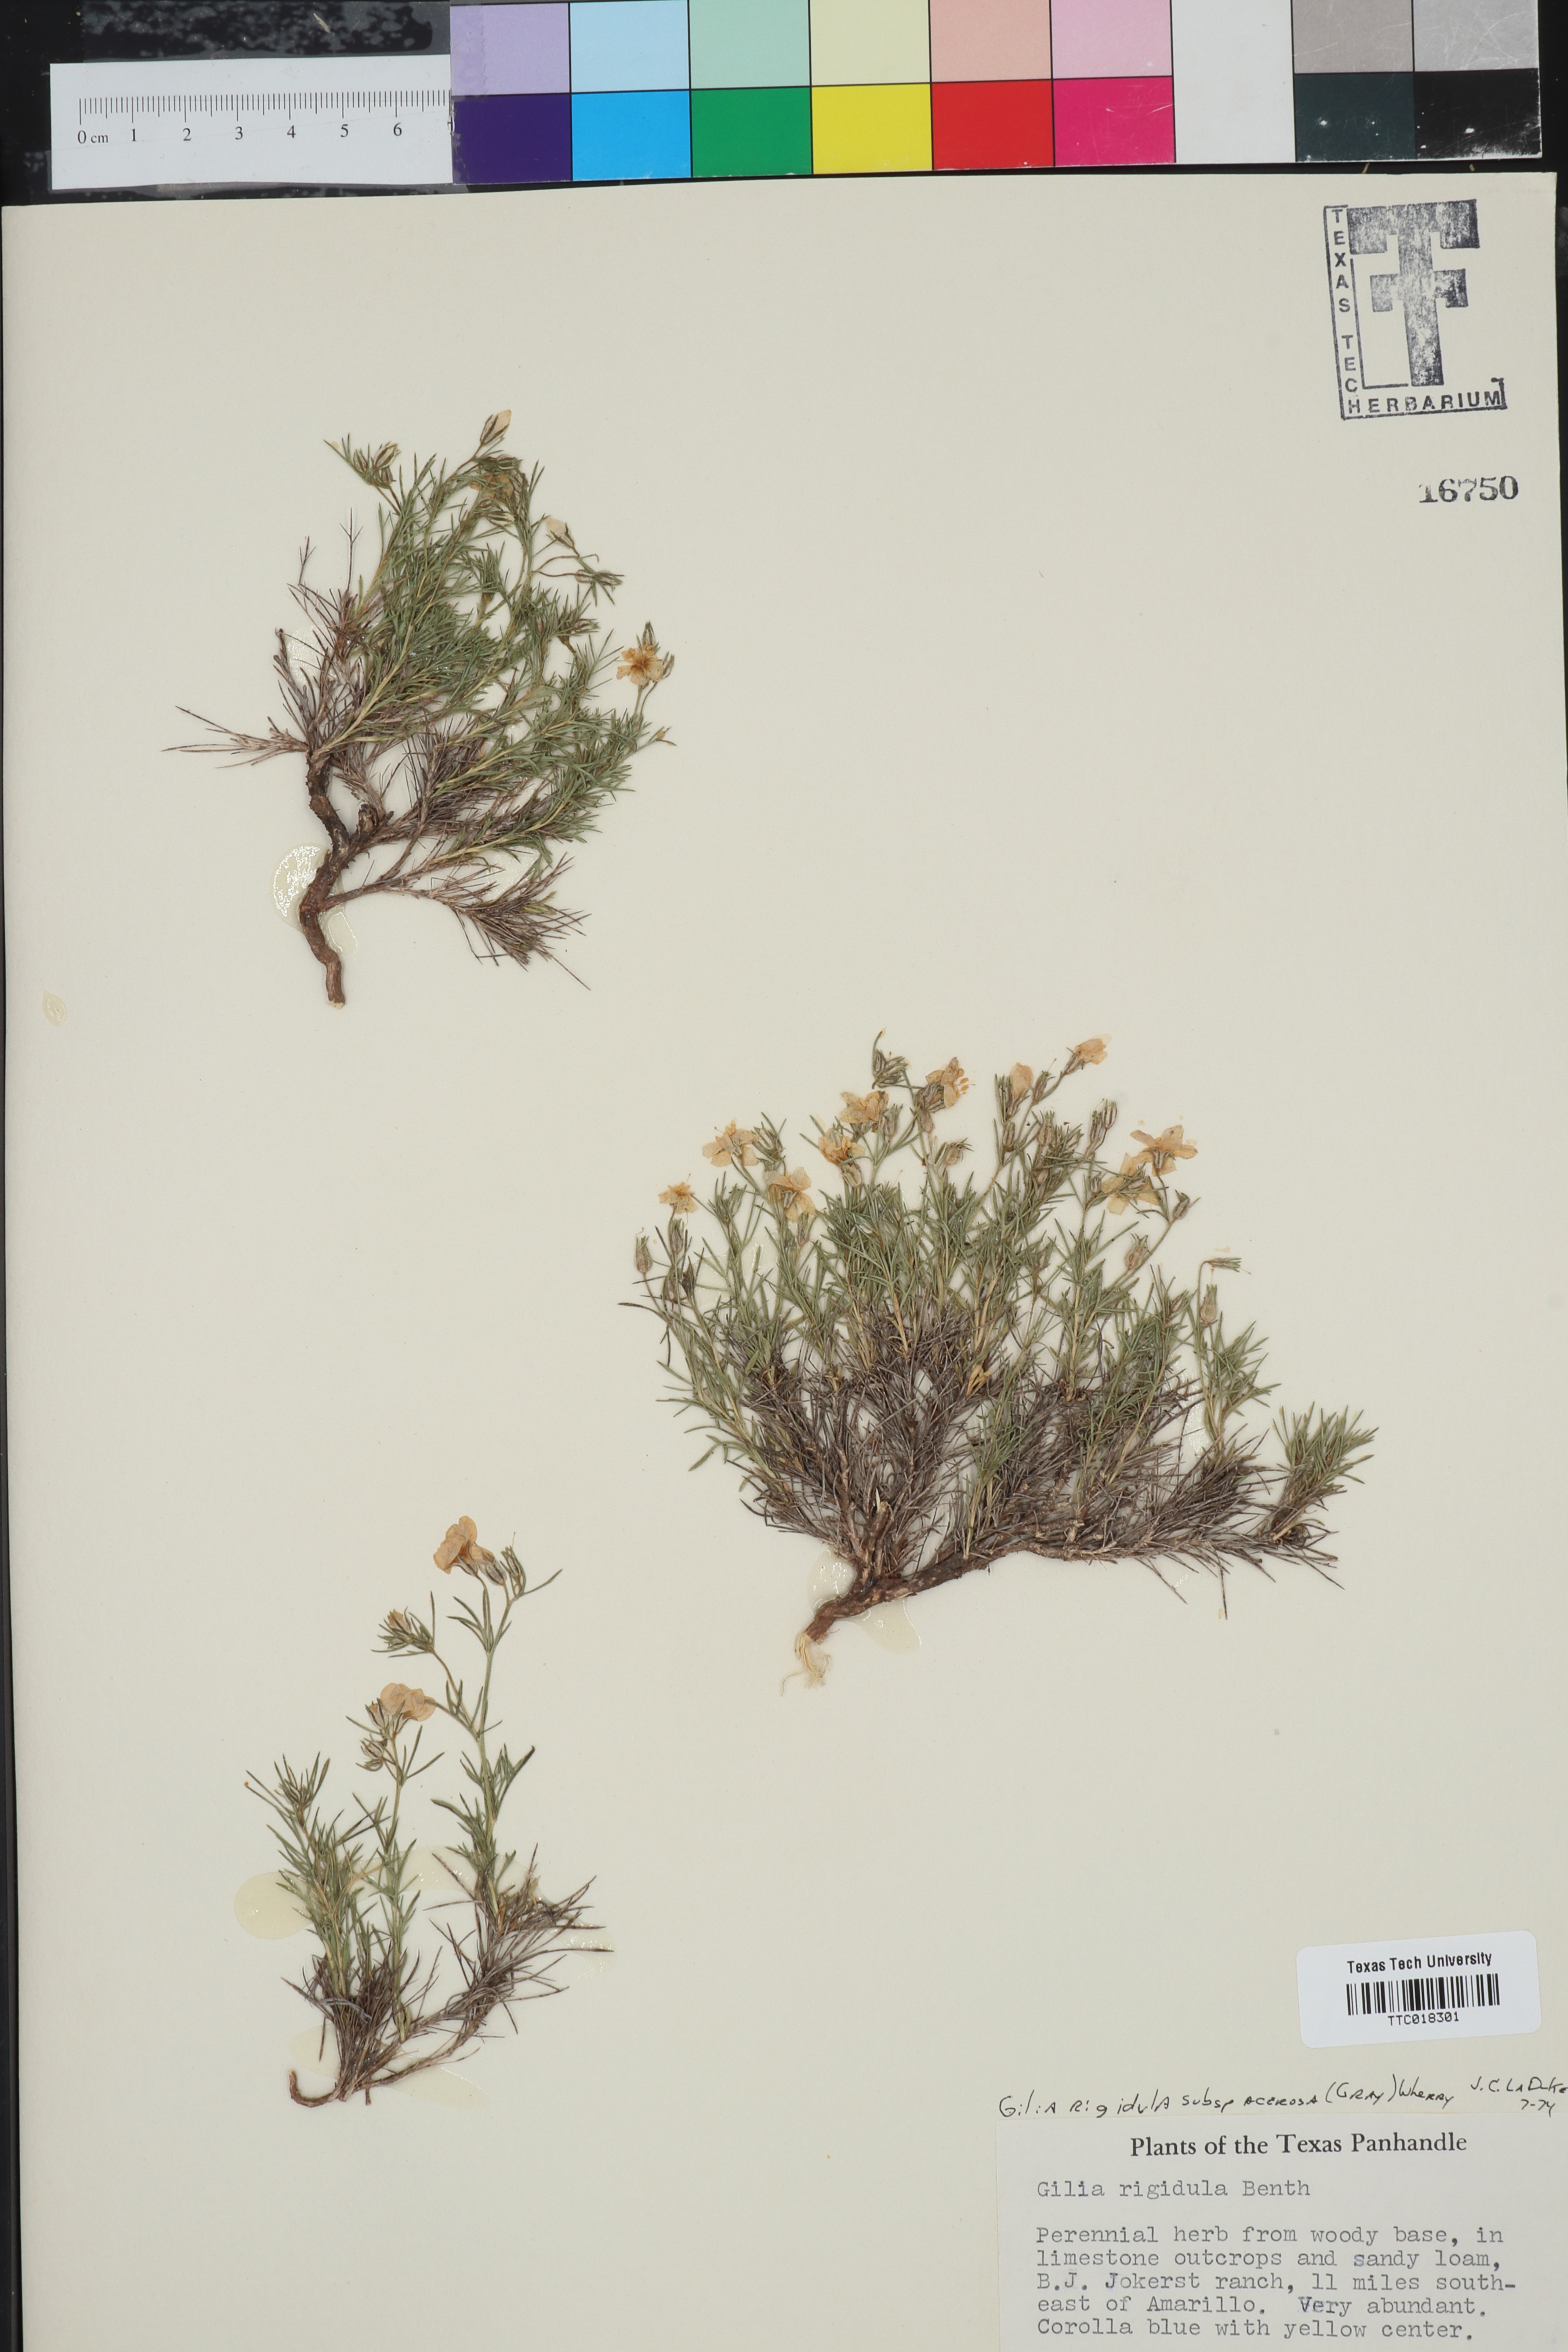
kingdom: Plantae
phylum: Tracheophyta
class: Magnoliopsida
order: Ericales
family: Polemoniaceae
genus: Giliastrum
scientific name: Giliastrum acerosum
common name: Bluebowls
